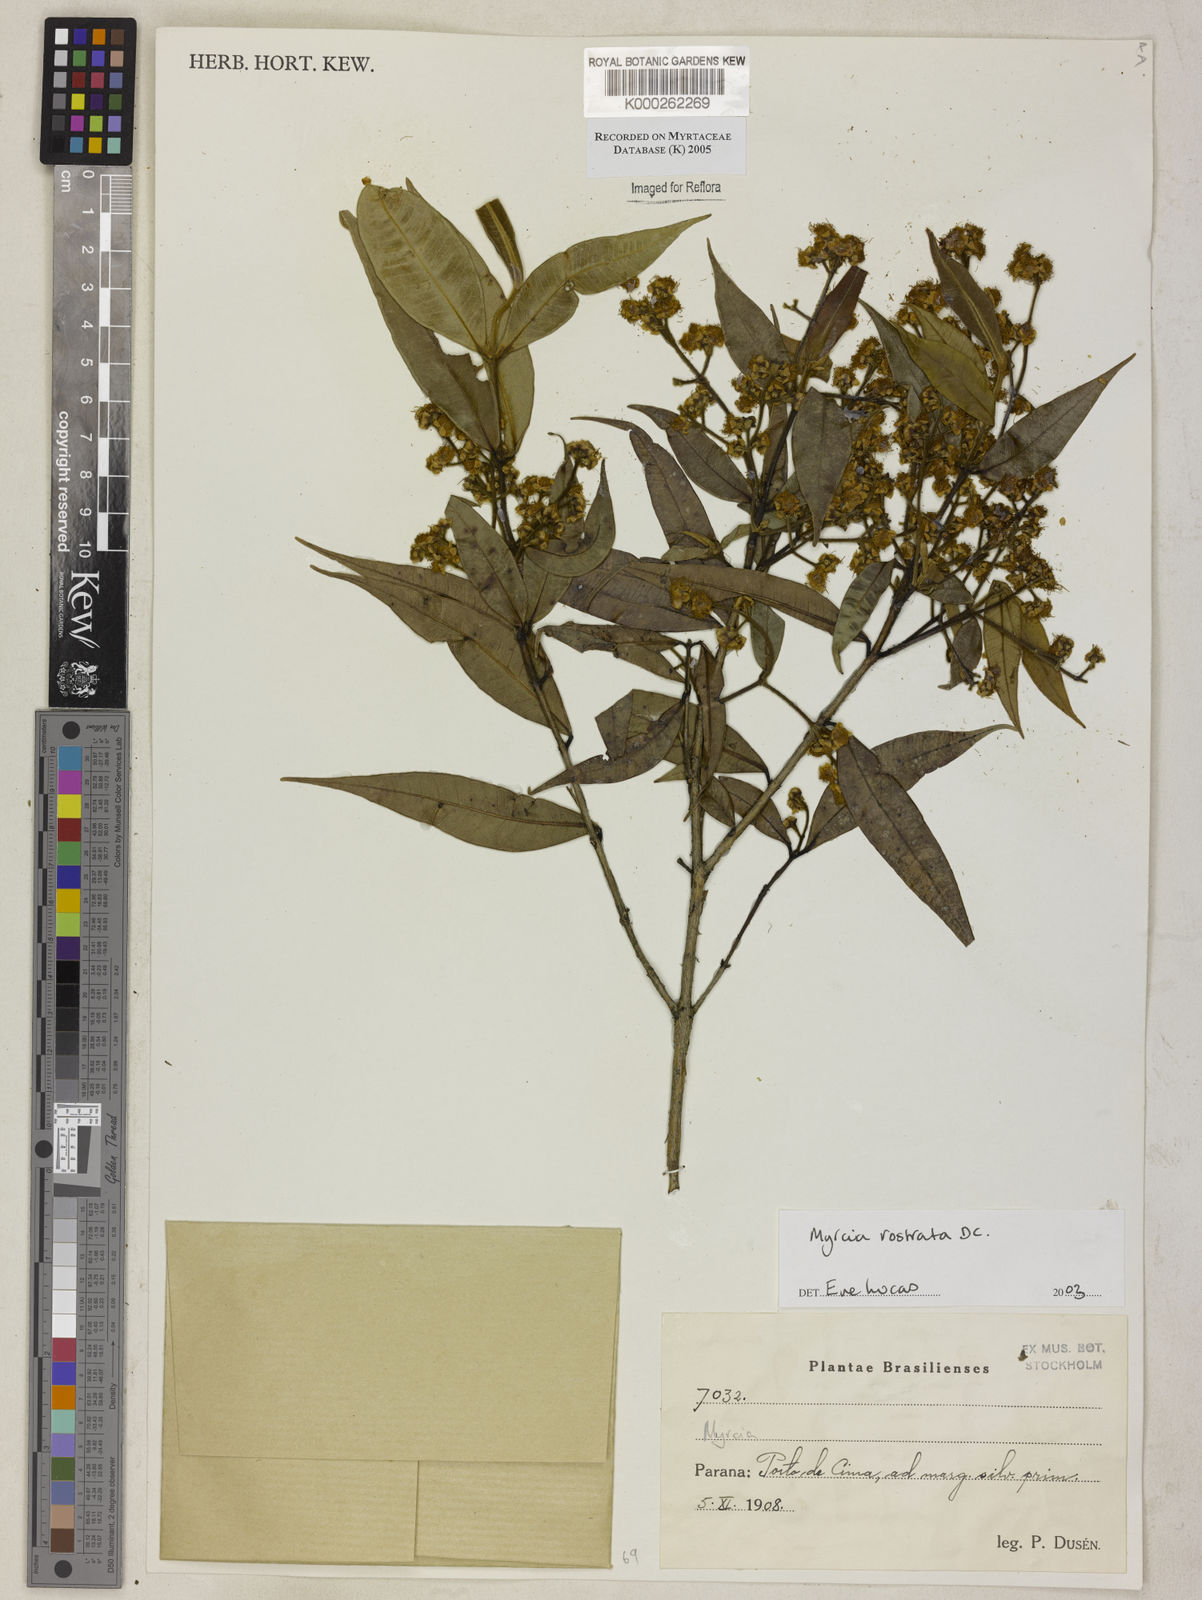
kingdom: Plantae
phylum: Tracheophyta
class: Magnoliopsida
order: Myrtales
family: Myrtaceae
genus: Myrcia
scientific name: Myrcia splendens
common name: Surinam cherry
